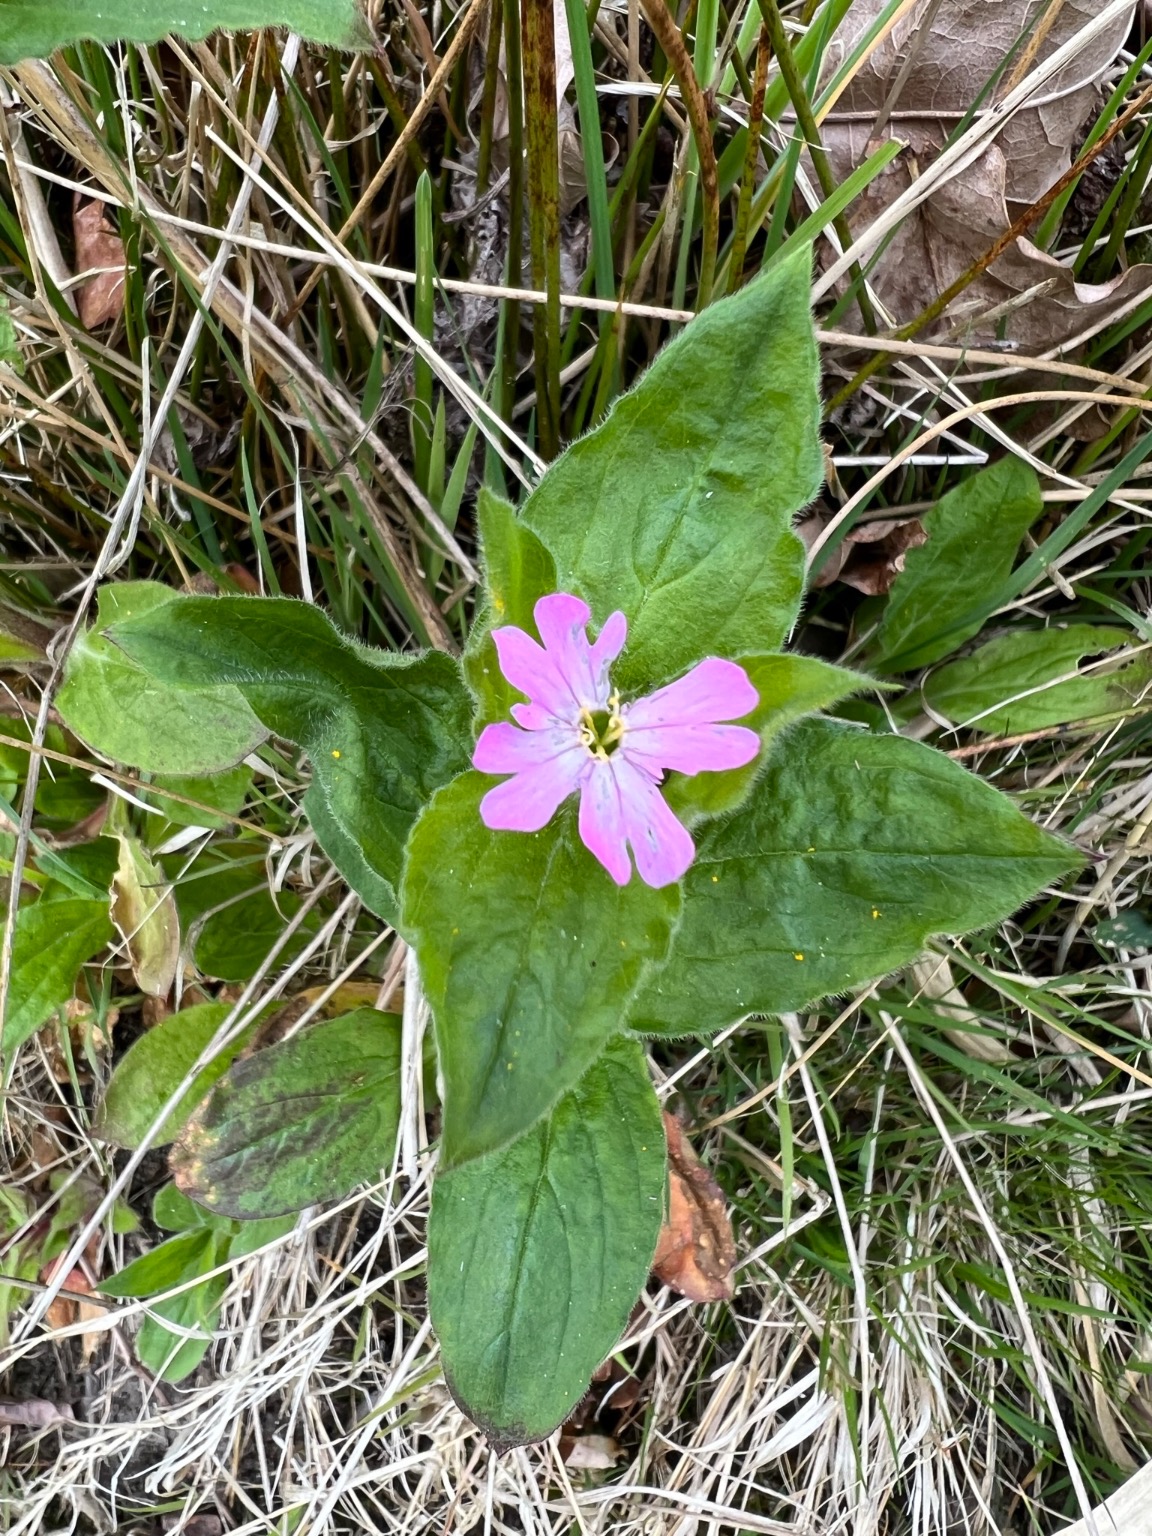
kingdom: Plantae
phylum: Tracheophyta
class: Magnoliopsida
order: Caryophyllales
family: Caryophyllaceae
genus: Silene
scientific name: Silene dioica
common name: Dagpragtstjerne
